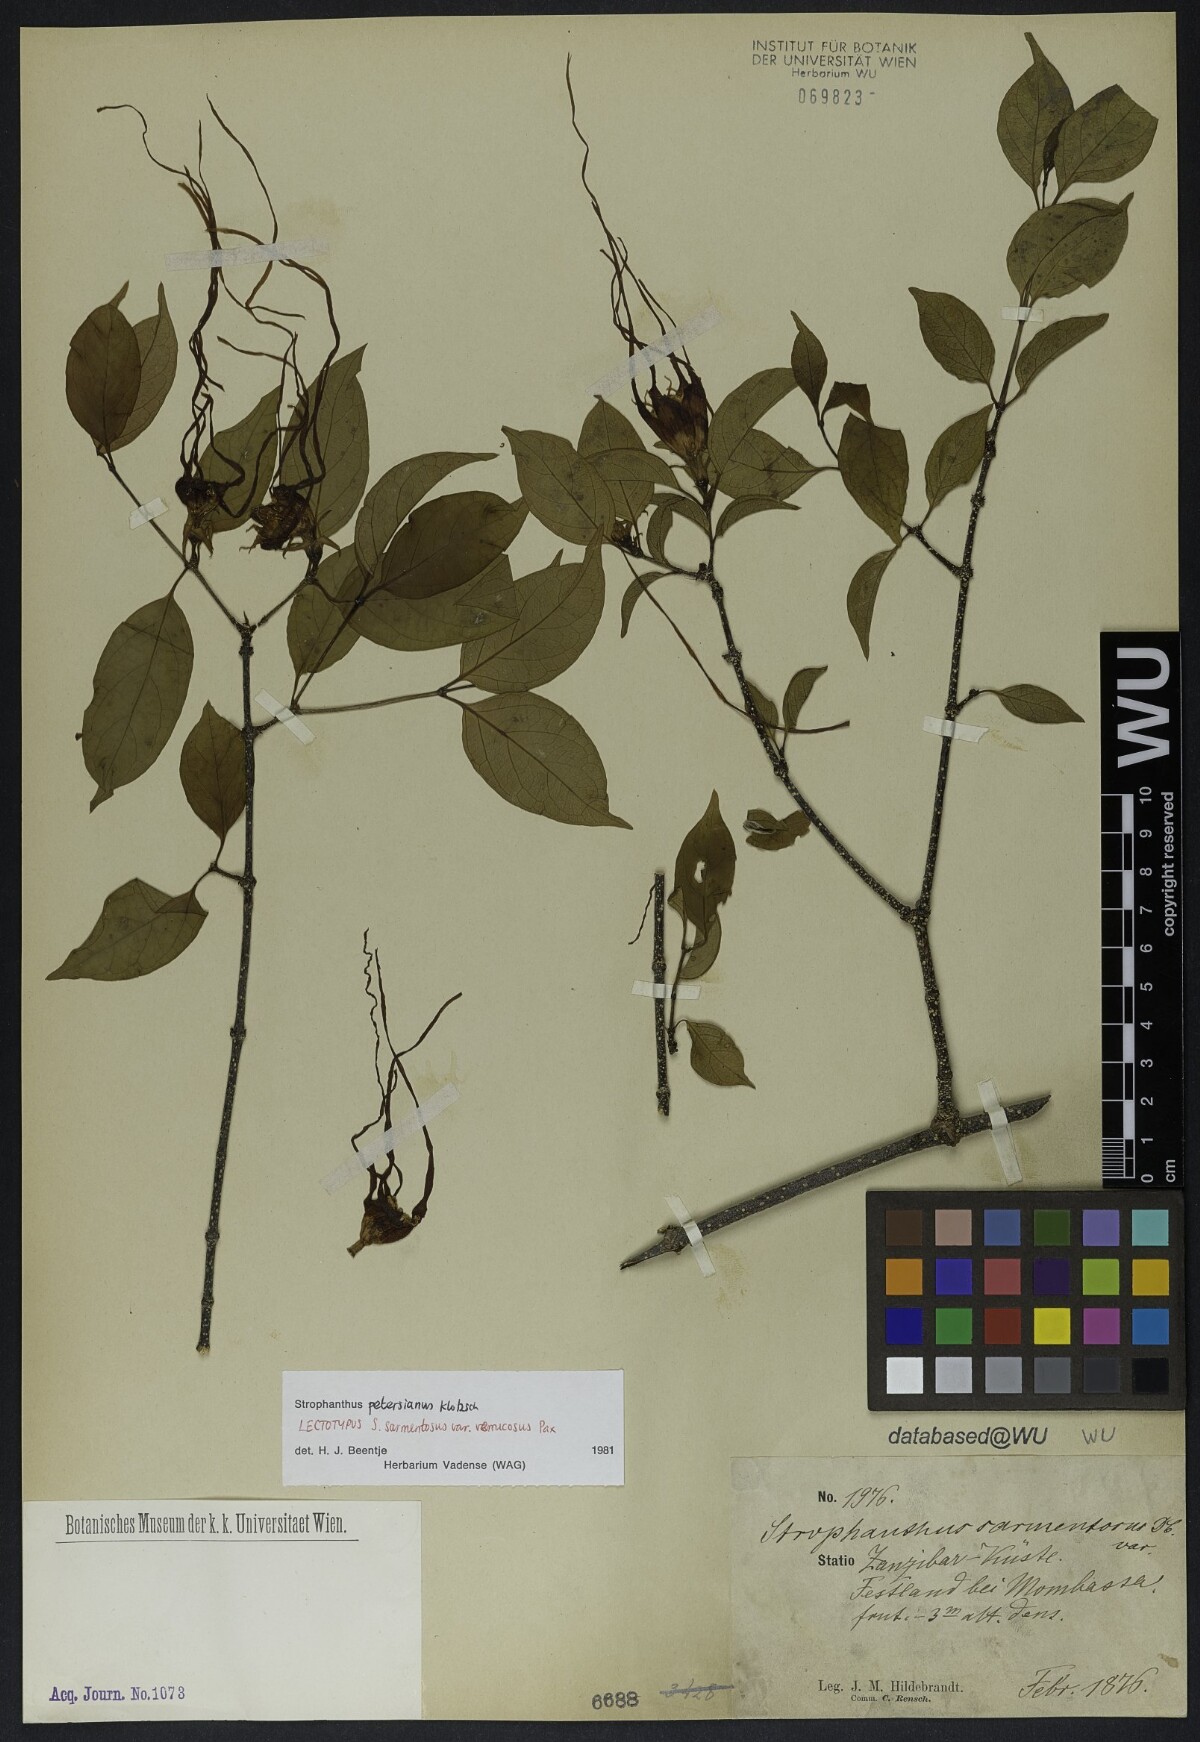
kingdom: Plantae
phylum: Tracheophyta
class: Magnoliopsida
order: Gentianales
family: Apocynaceae
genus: Strophanthus
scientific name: Strophanthus petersianus
